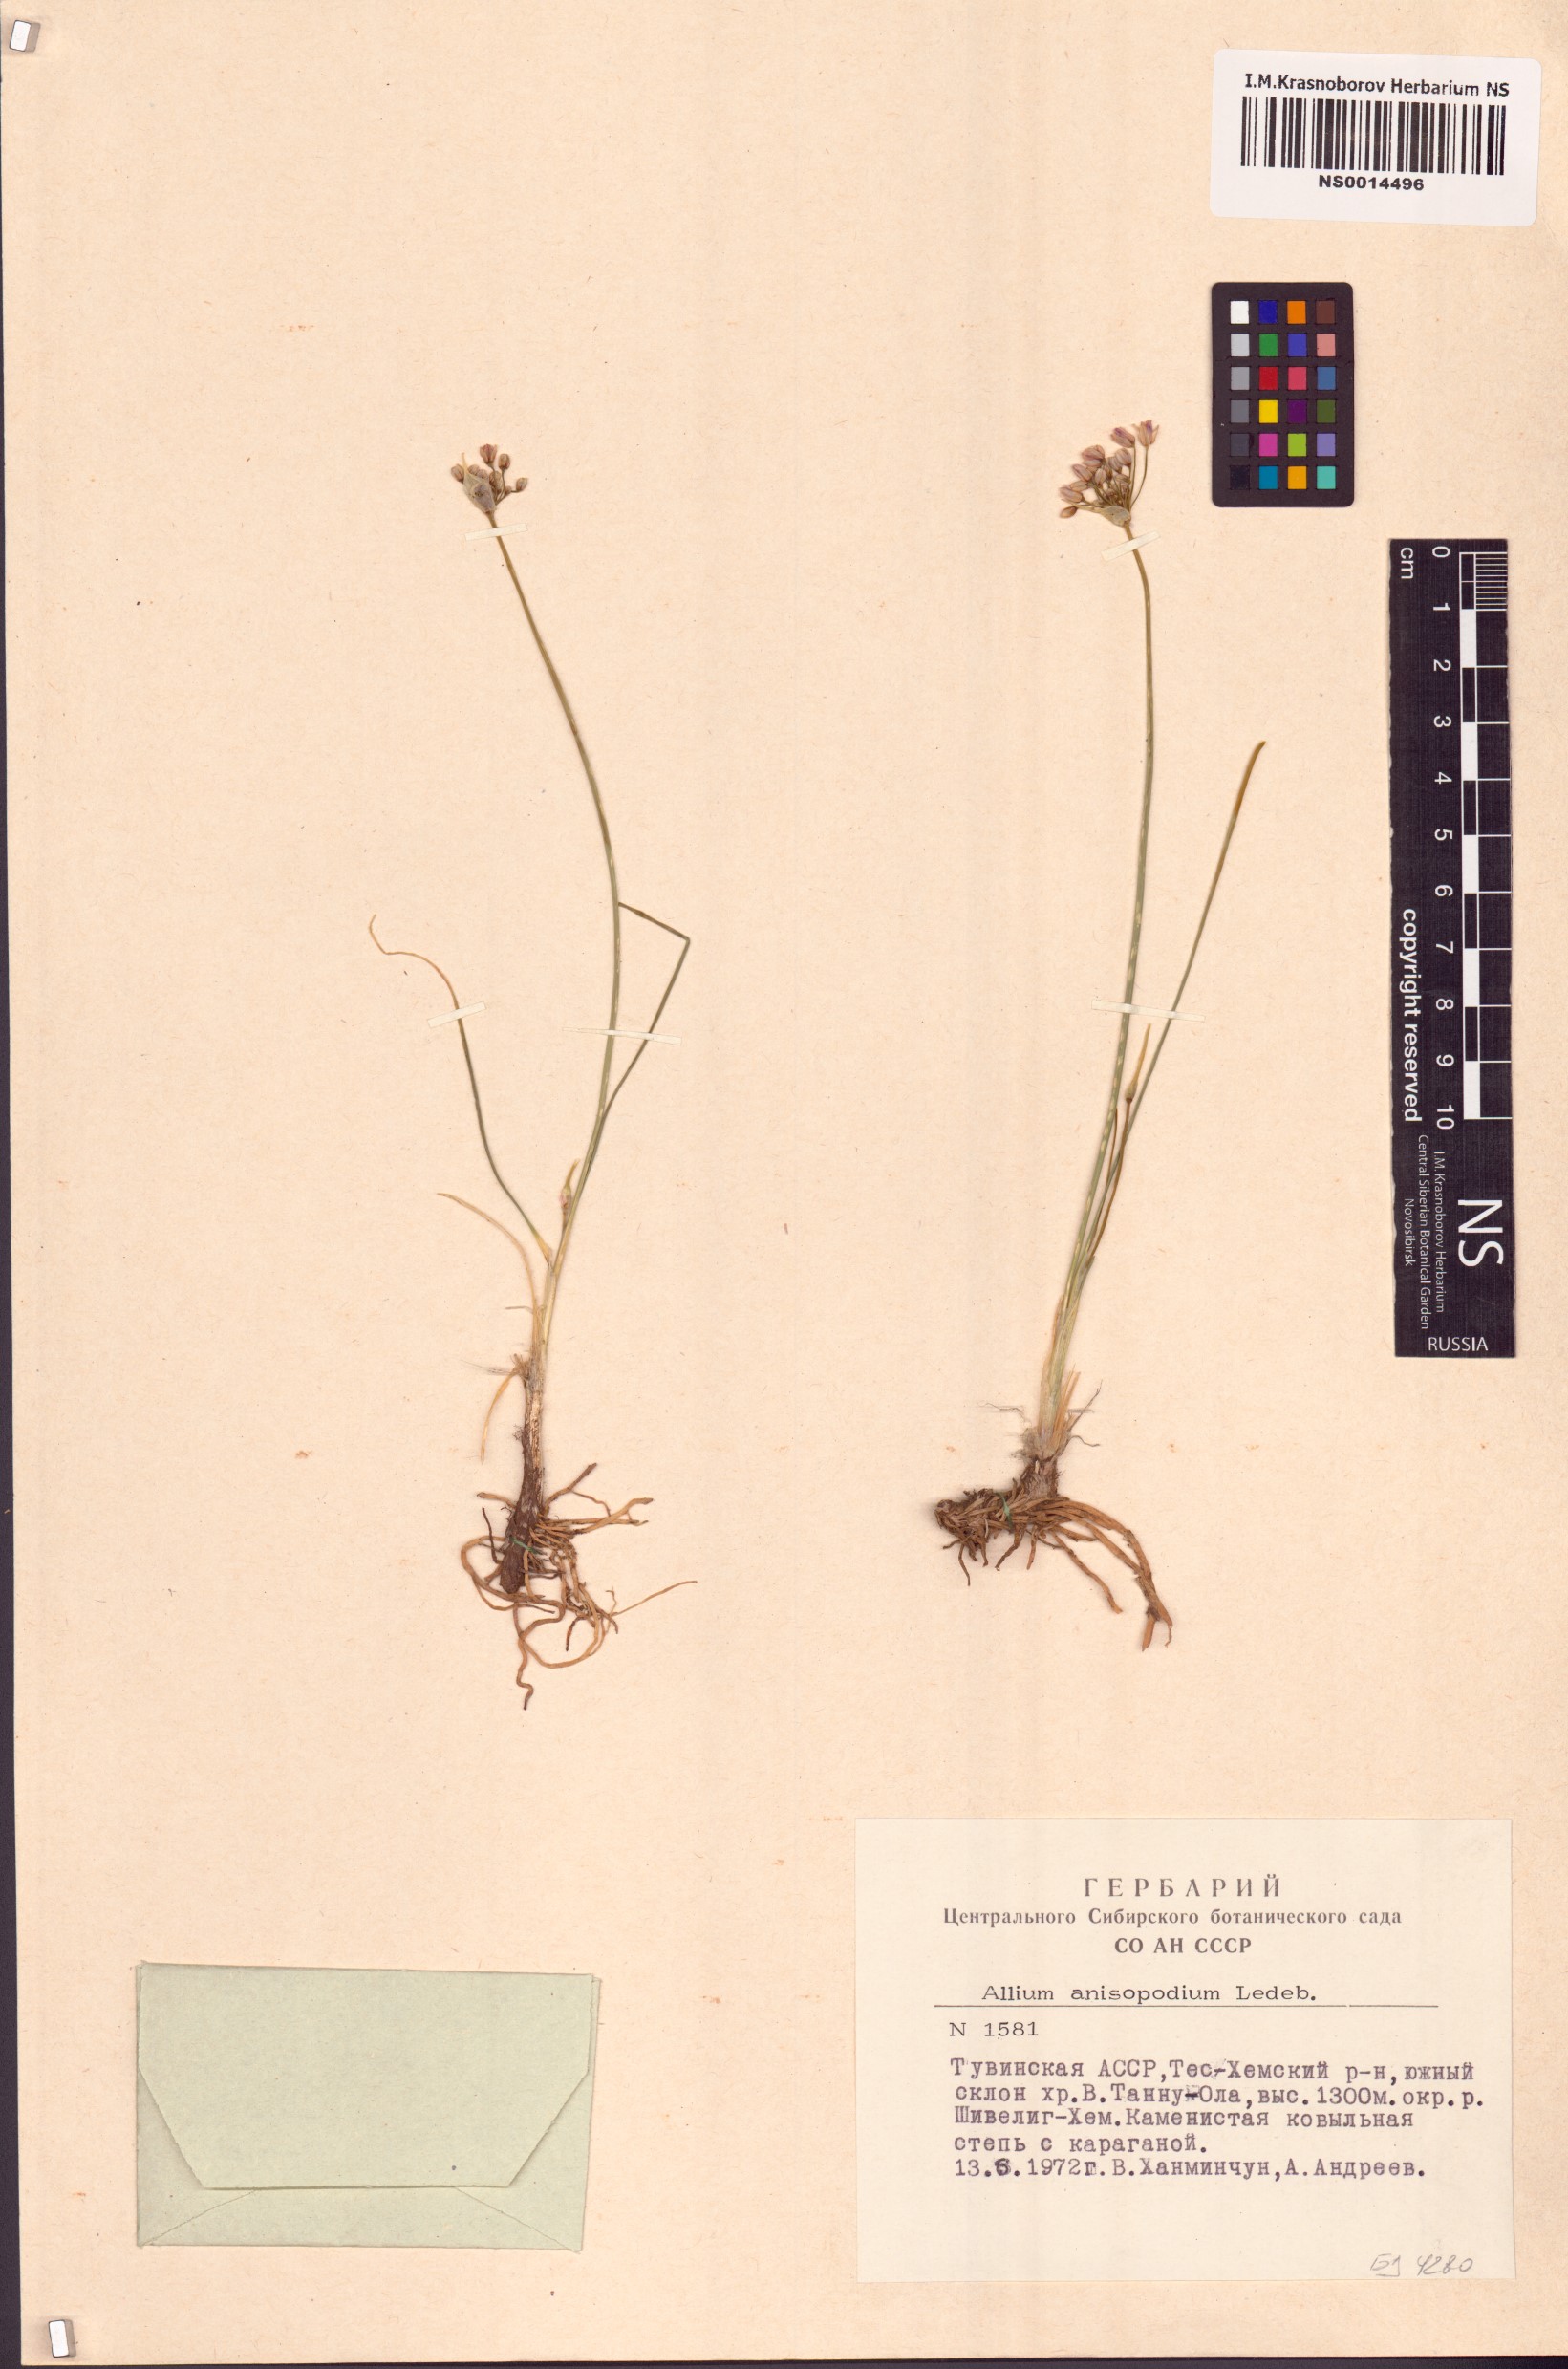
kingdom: Plantae
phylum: Tracheophyta
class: Liliopsida
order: Asparagales
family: Amaryllidaceae
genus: Allium
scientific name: Allium anisopodium
